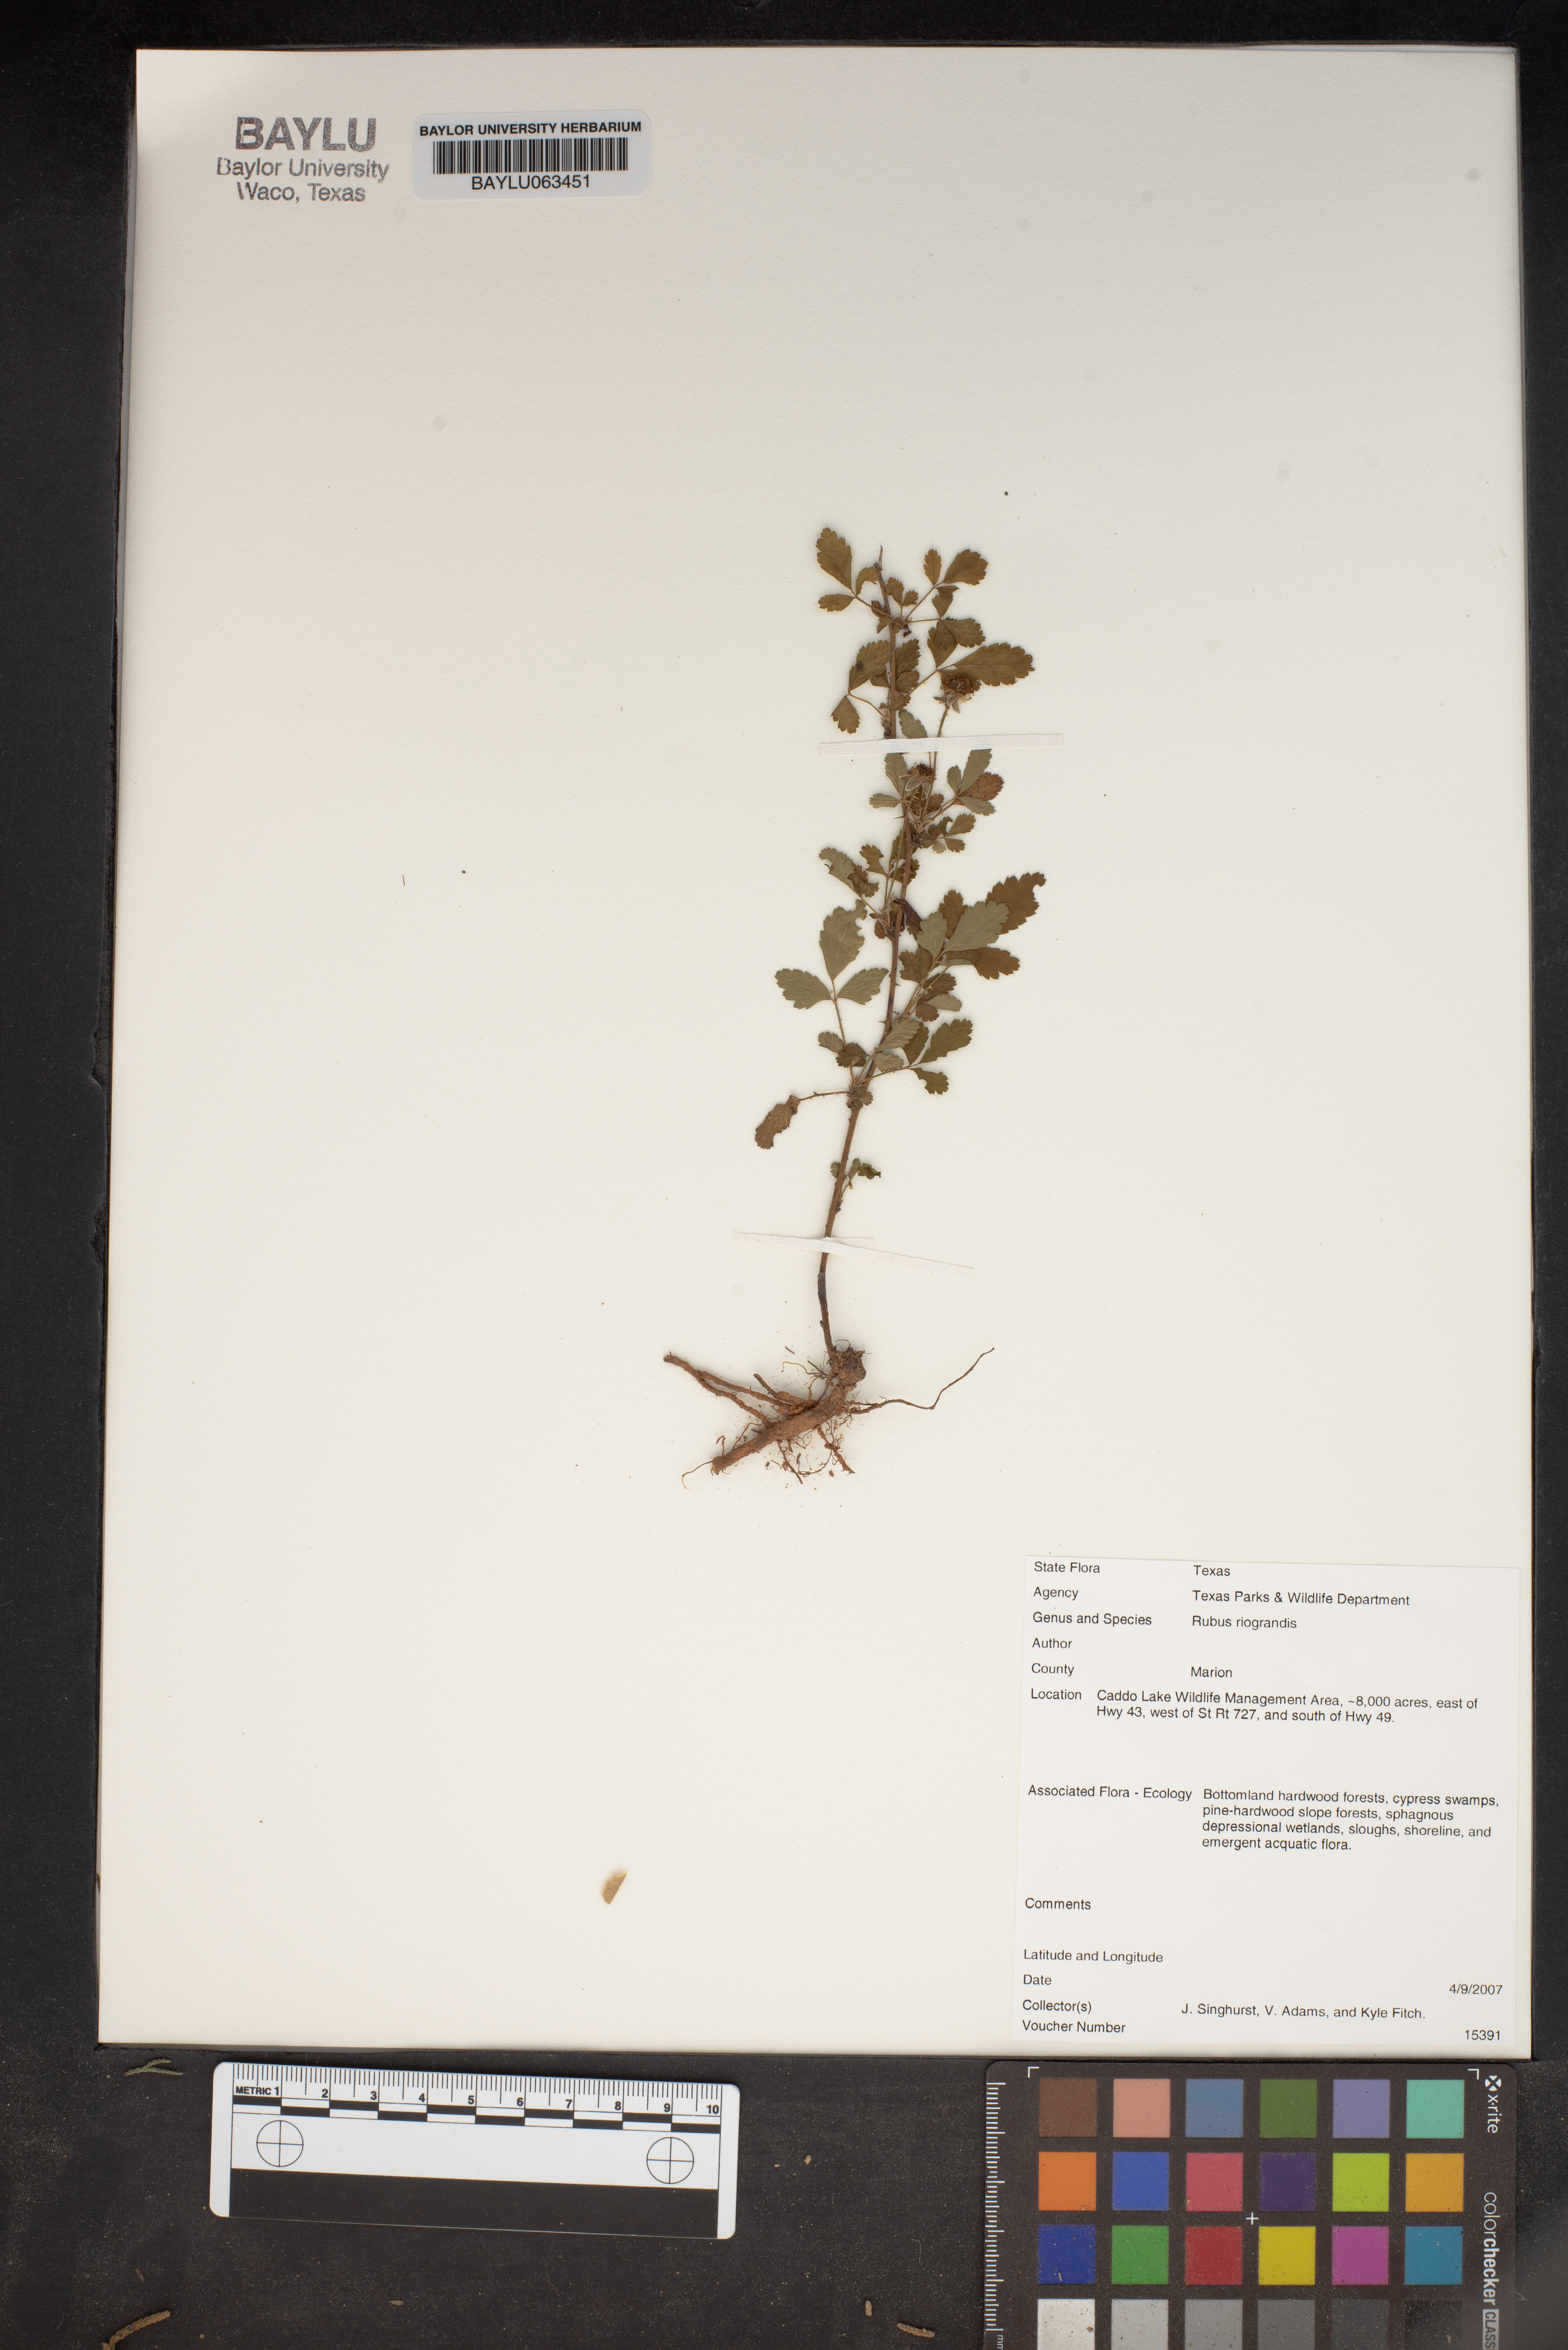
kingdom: Plantae
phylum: Tracheophyta
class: Magnoliopsida
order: Rosales
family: Rosaceae
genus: Rubus
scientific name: Rubus riograndis
